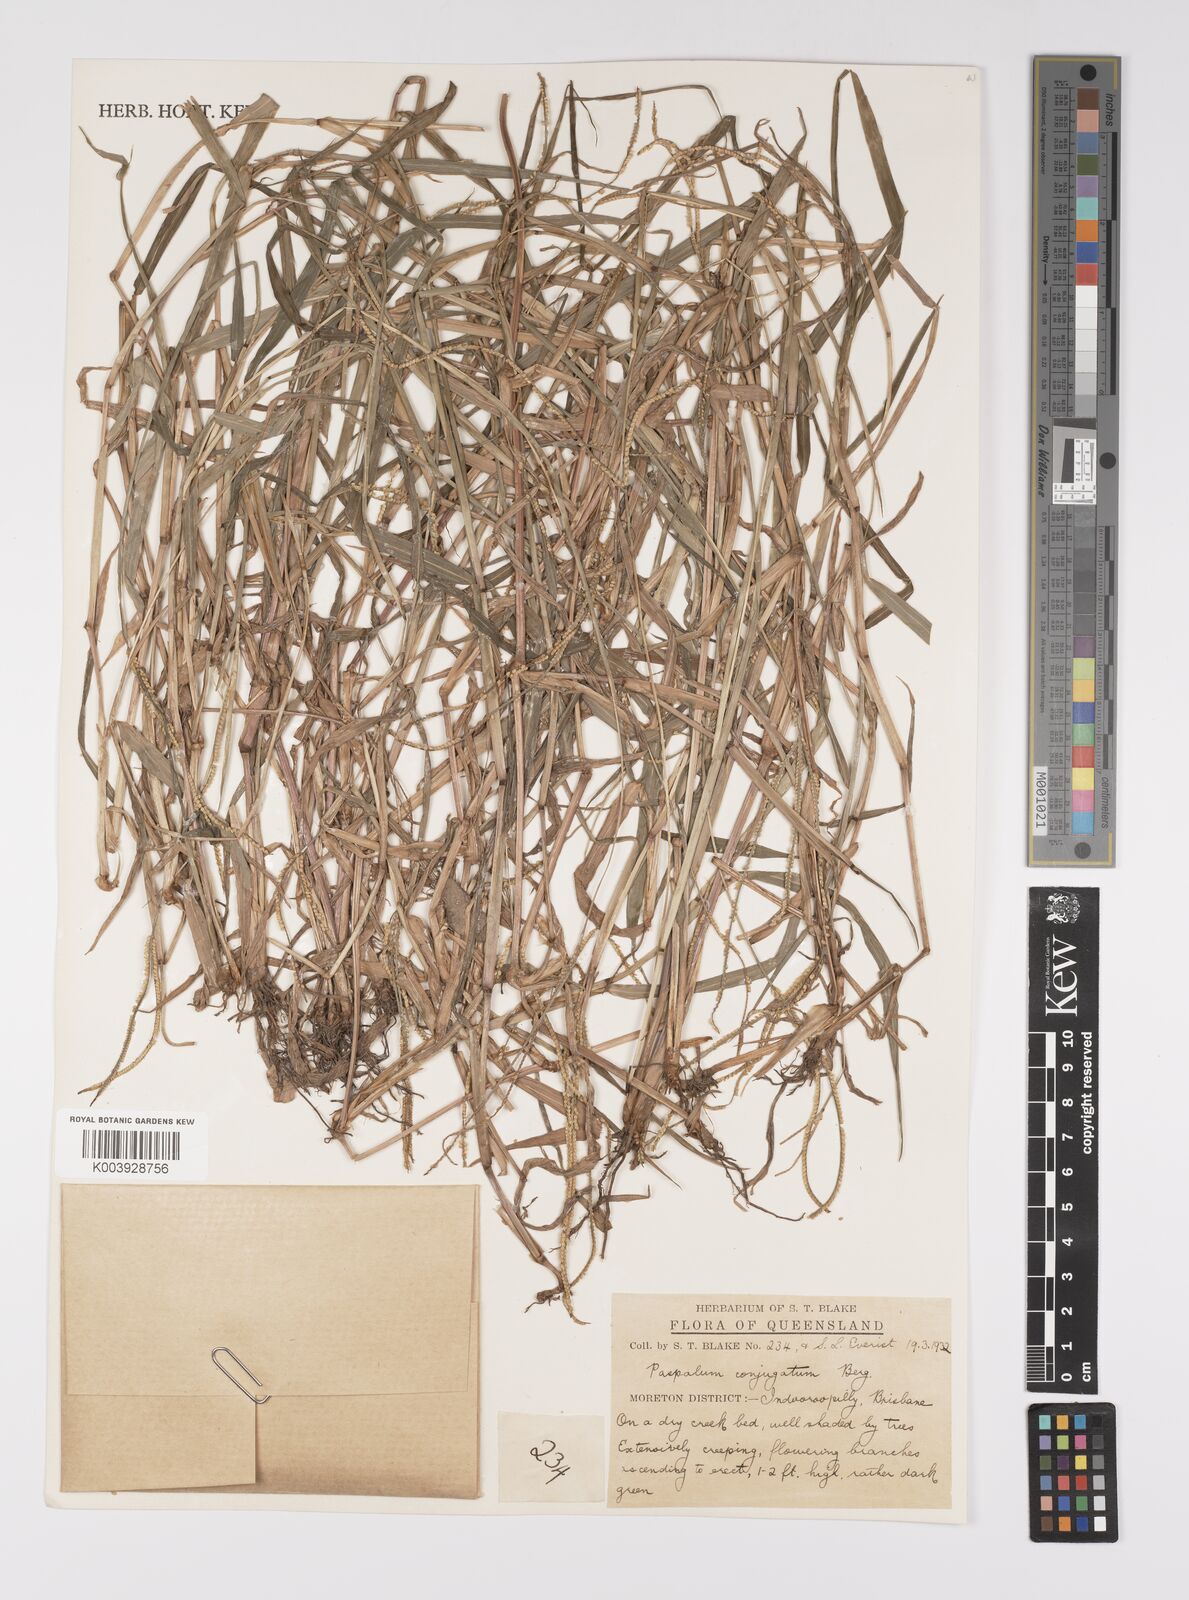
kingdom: Plantae
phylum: Tracheophyta
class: Liliopsida
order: Poales
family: Poaceae
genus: Paspalum
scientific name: Paspalum conjugatum
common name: Hilograss
